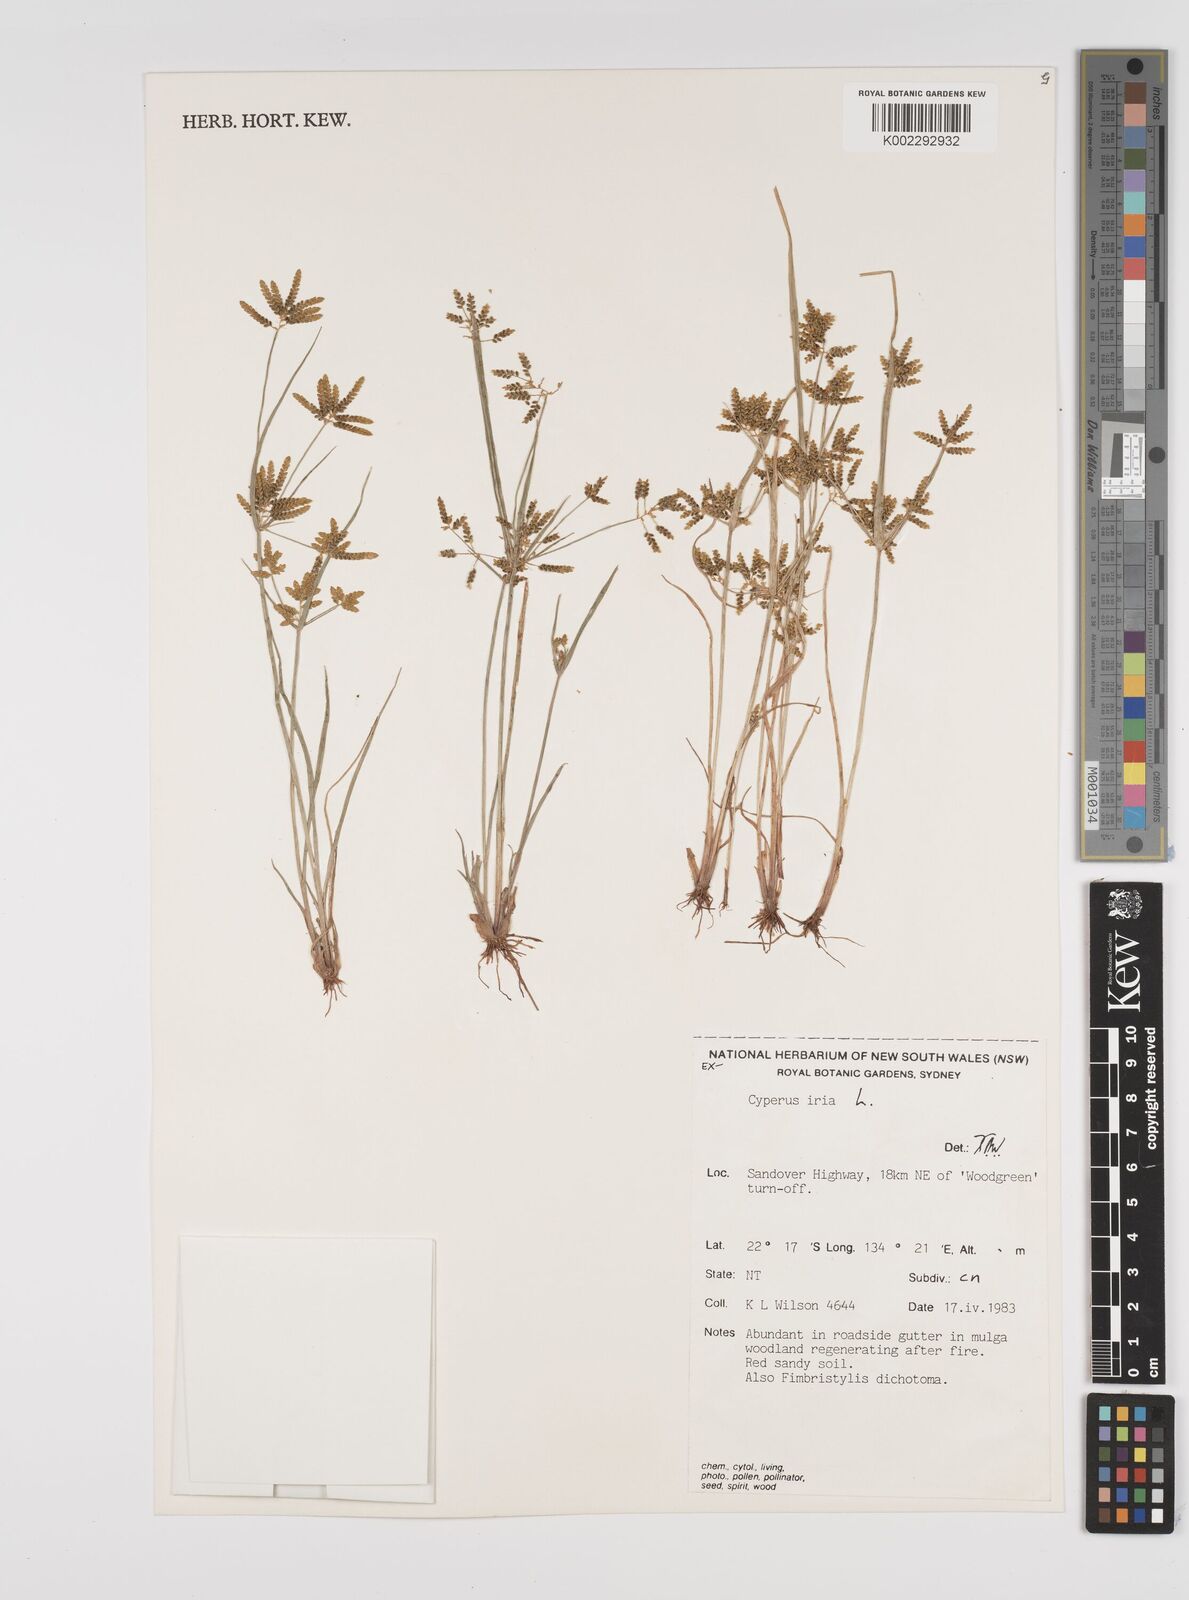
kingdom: Plantae
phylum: Tracheophyta
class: Liliopsida
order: Poales
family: Cyperaceae
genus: Cyperus
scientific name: Cyperus iria
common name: Ricefield flatsedge
